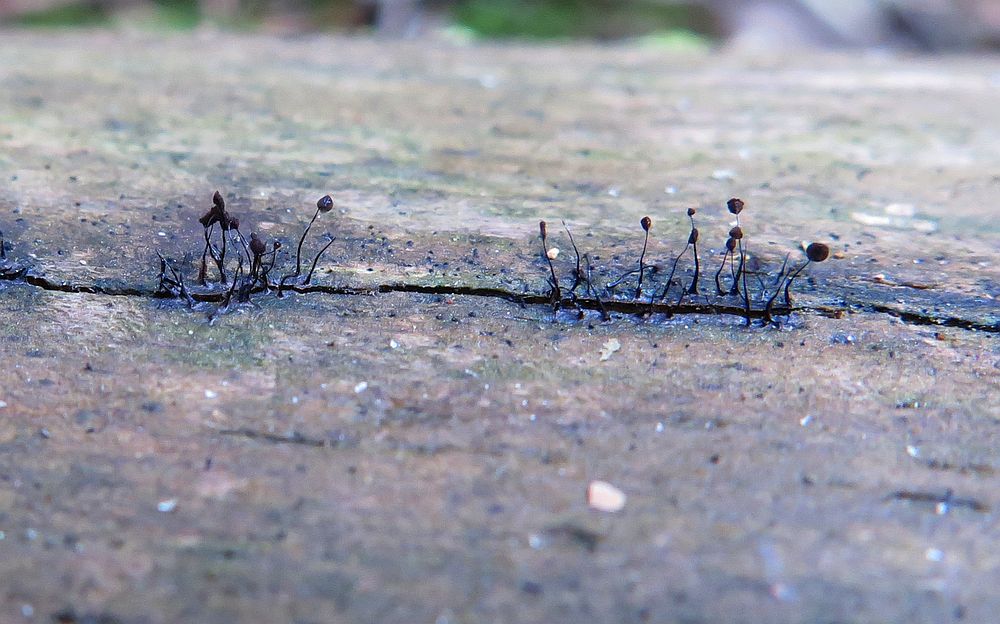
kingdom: Protozoa
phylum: Mycetozoa
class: Myxomycetes
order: Stemonitidales
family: Stemonitidaceae
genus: Comatricha
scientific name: Comatricha nigra
